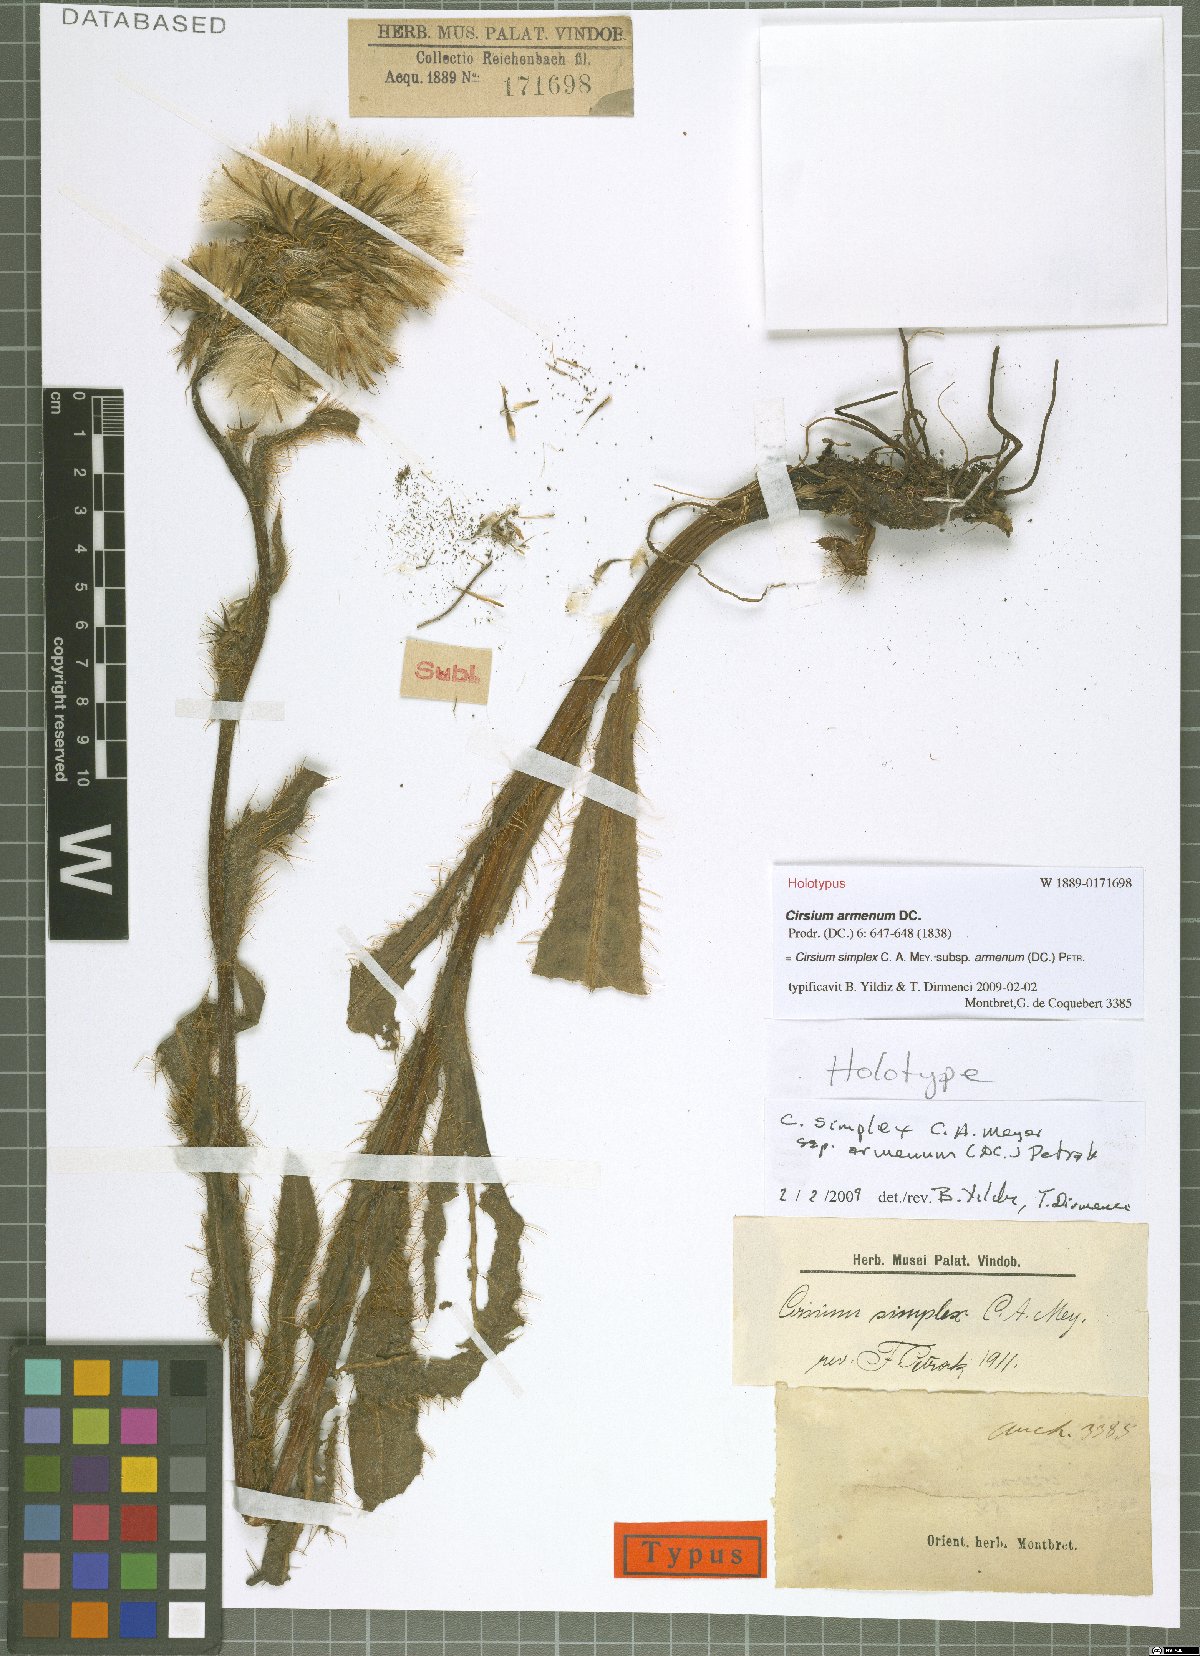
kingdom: Plantae
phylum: Tracheophyta
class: Magnoliopsida
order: Asterales
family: Asteraceae
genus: Cirsium
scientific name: Cirsium simplex
